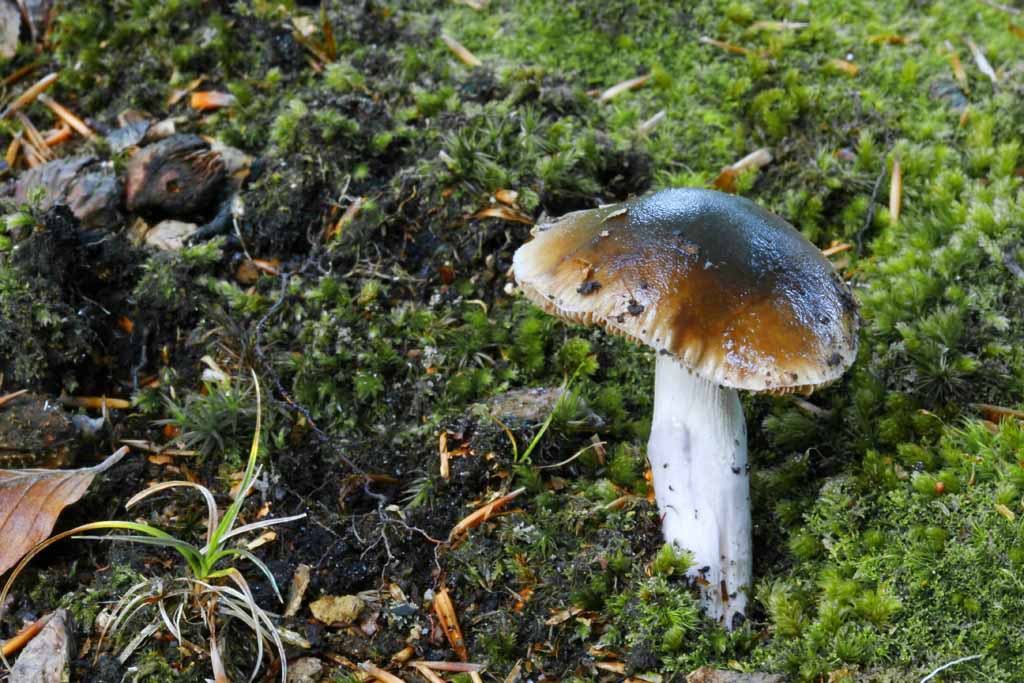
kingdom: Fungi
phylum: Basidiomycota
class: Agaricomycetes
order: Agaricales
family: Cortinariaceae
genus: Cortinarius
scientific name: Cortinarius elatior
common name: høj slørhat
